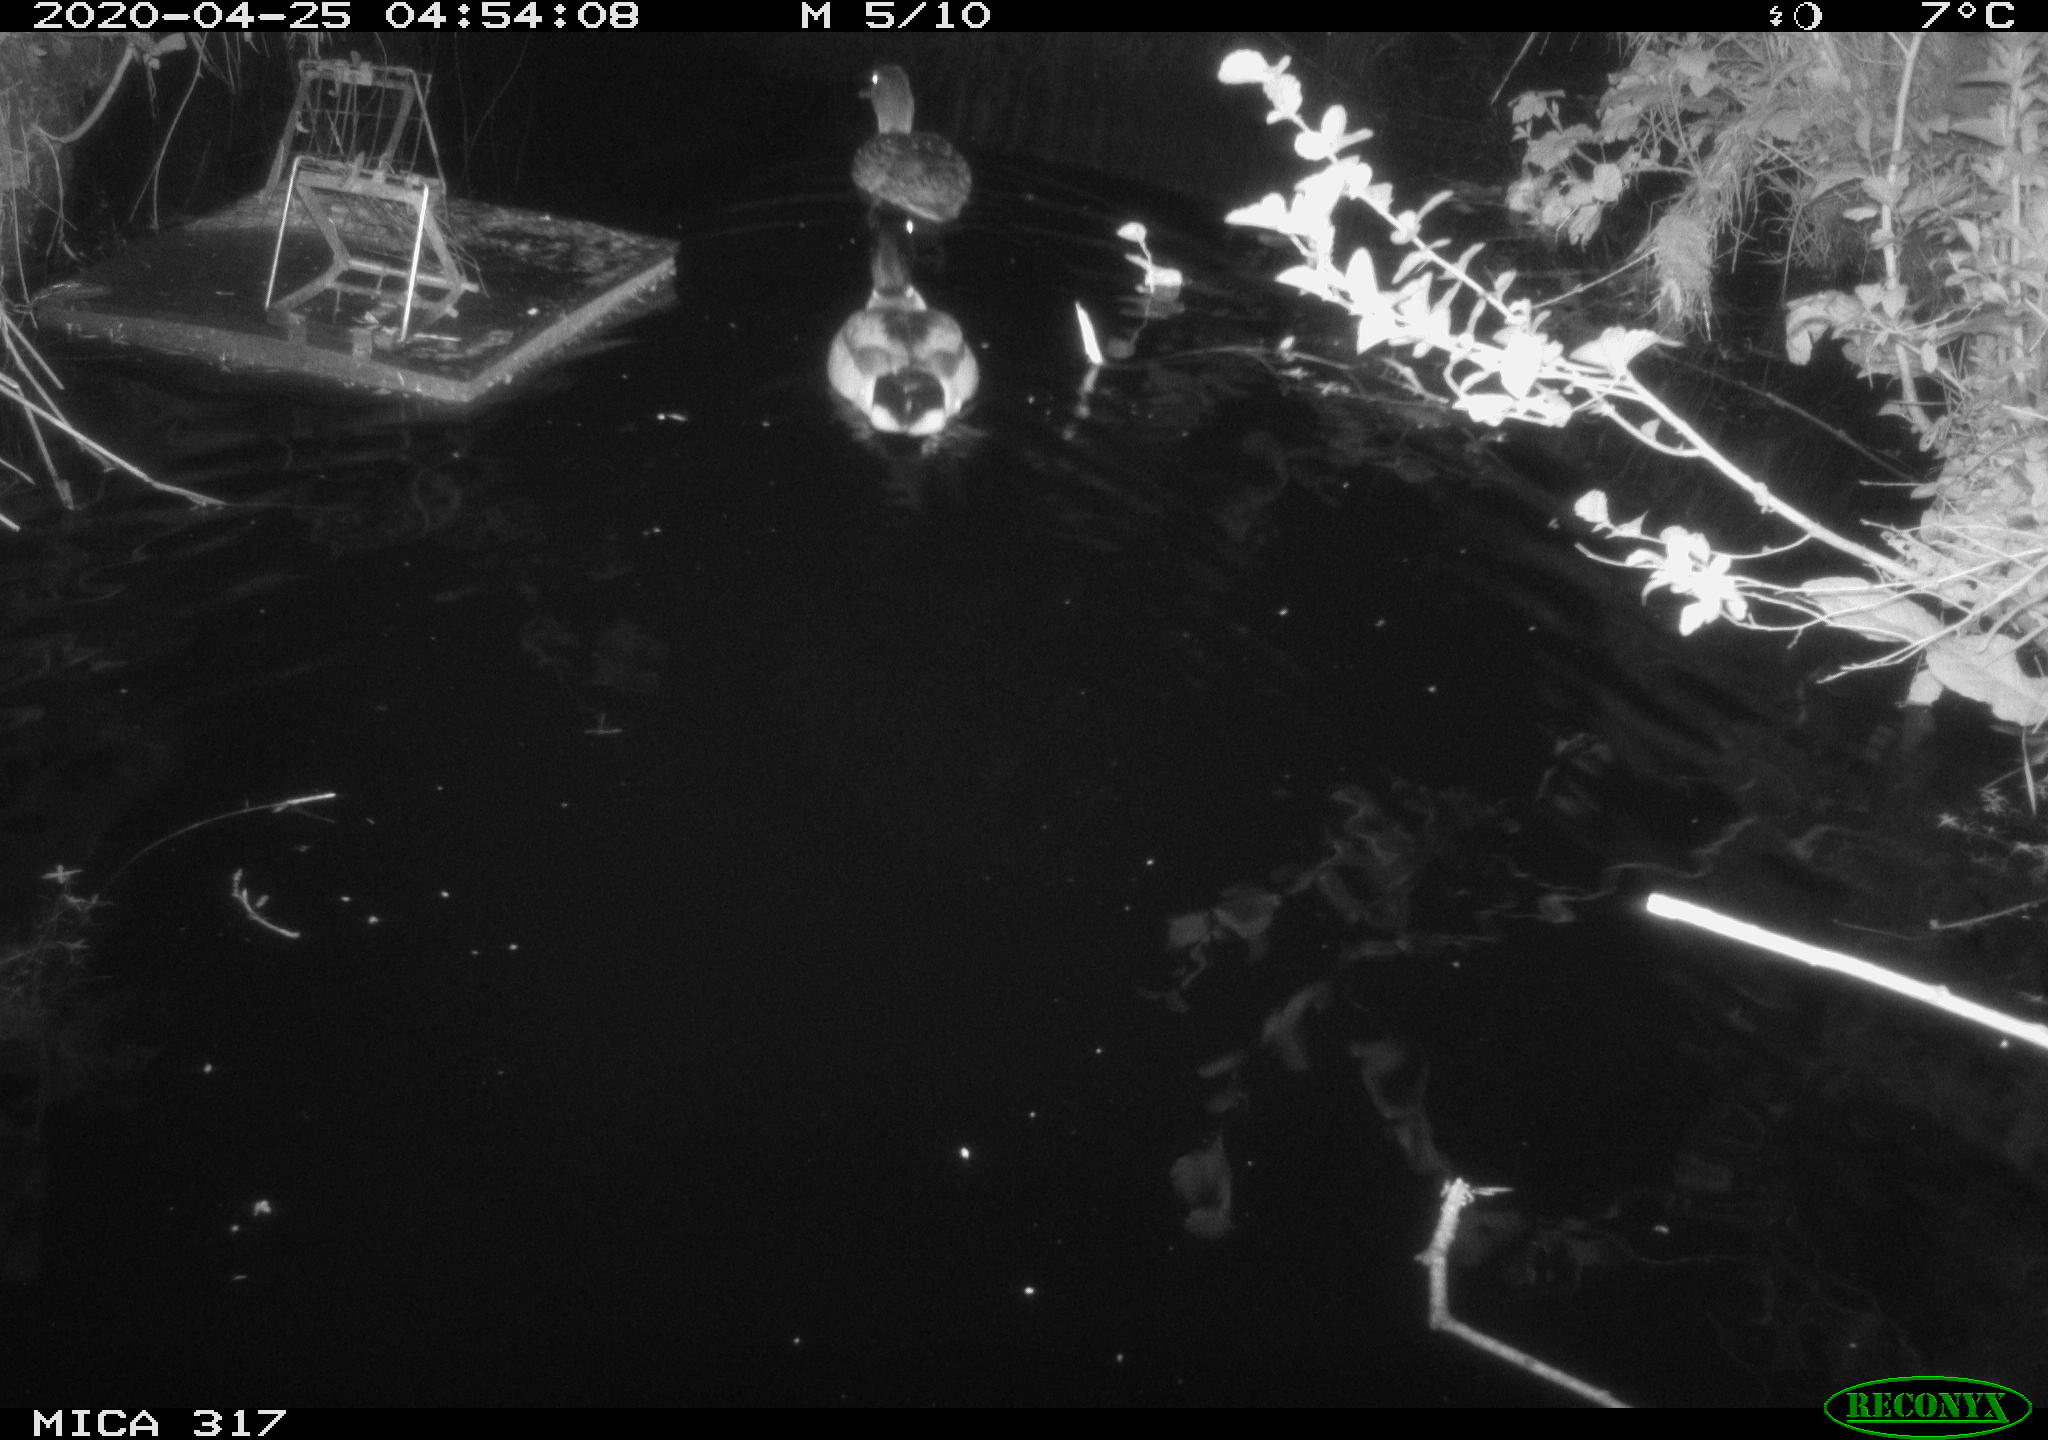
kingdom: Animalia
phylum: Chordata
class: Aves
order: Anseriformes
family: Anatidae
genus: Anas
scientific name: Anas platyrhynchos
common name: Mallard
